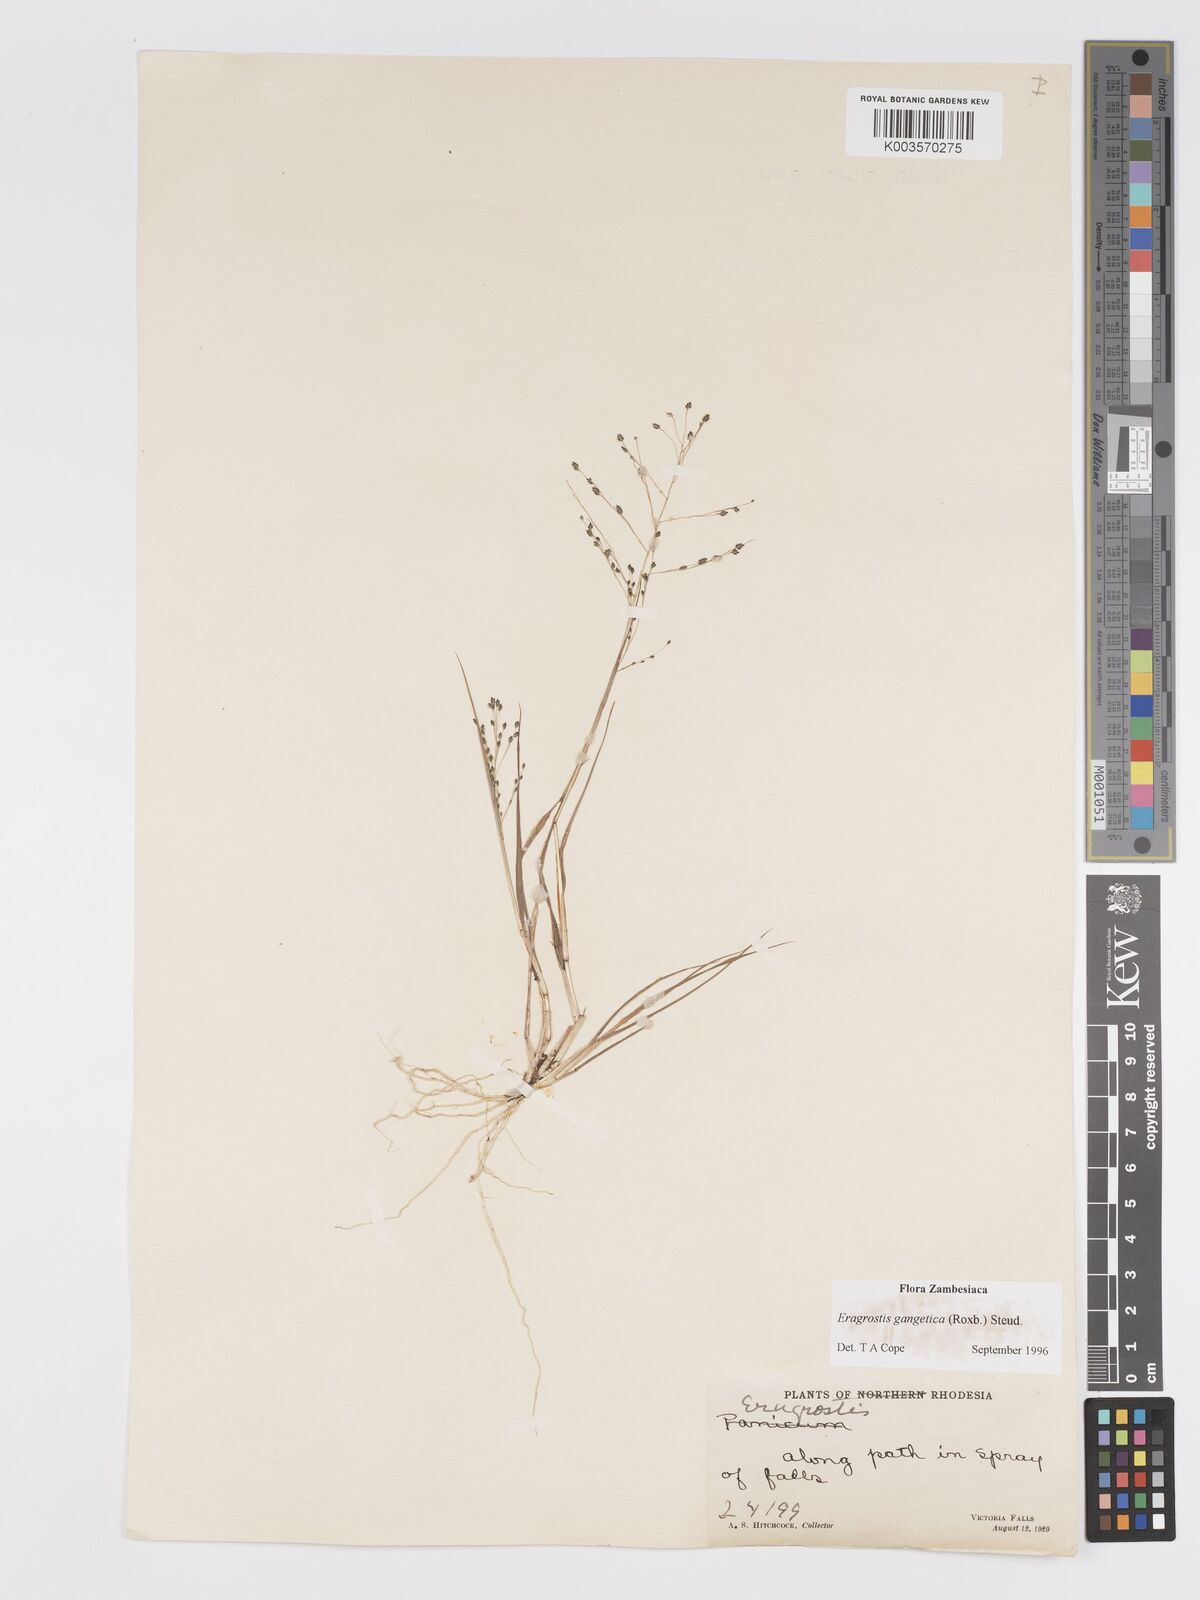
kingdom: Plantae
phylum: Tracheophyta
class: Liliopsida
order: Poales
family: Poaceae
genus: Eragrostis
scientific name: Eragrostis gangetica
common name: Slimflower lovegrass
